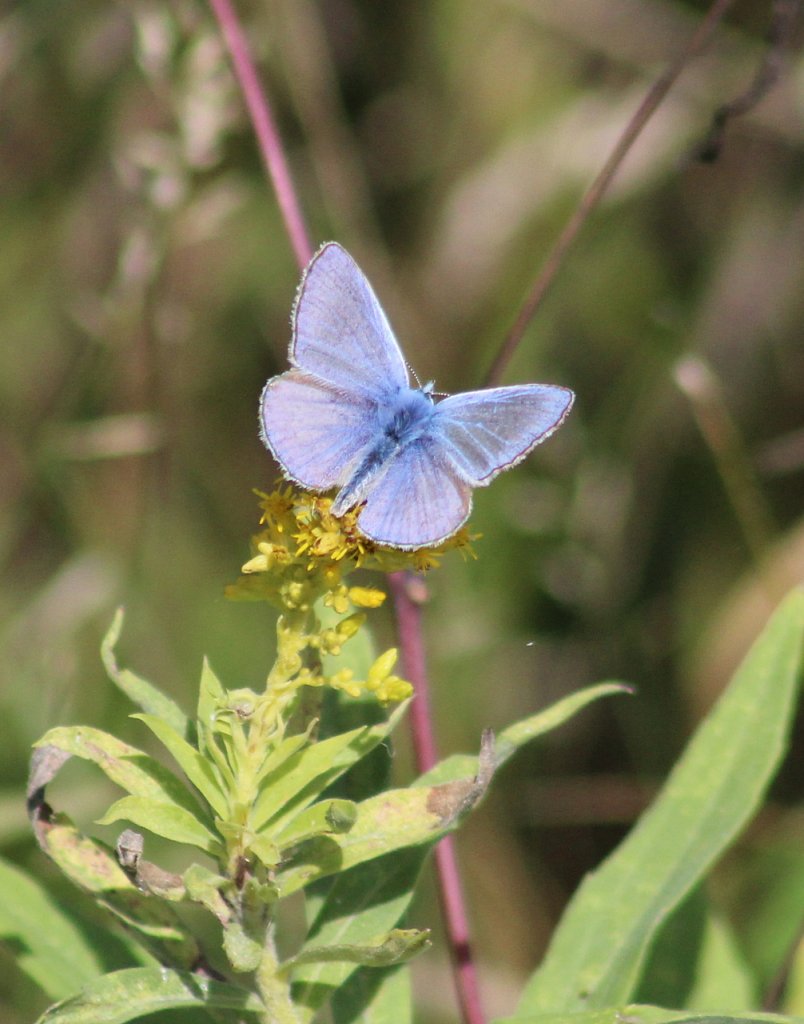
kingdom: Animalia
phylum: Arthropoda
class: Insecta
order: Lepidoptera
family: Lycaenidae
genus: Polyommatus
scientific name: Polyommatus icarus
